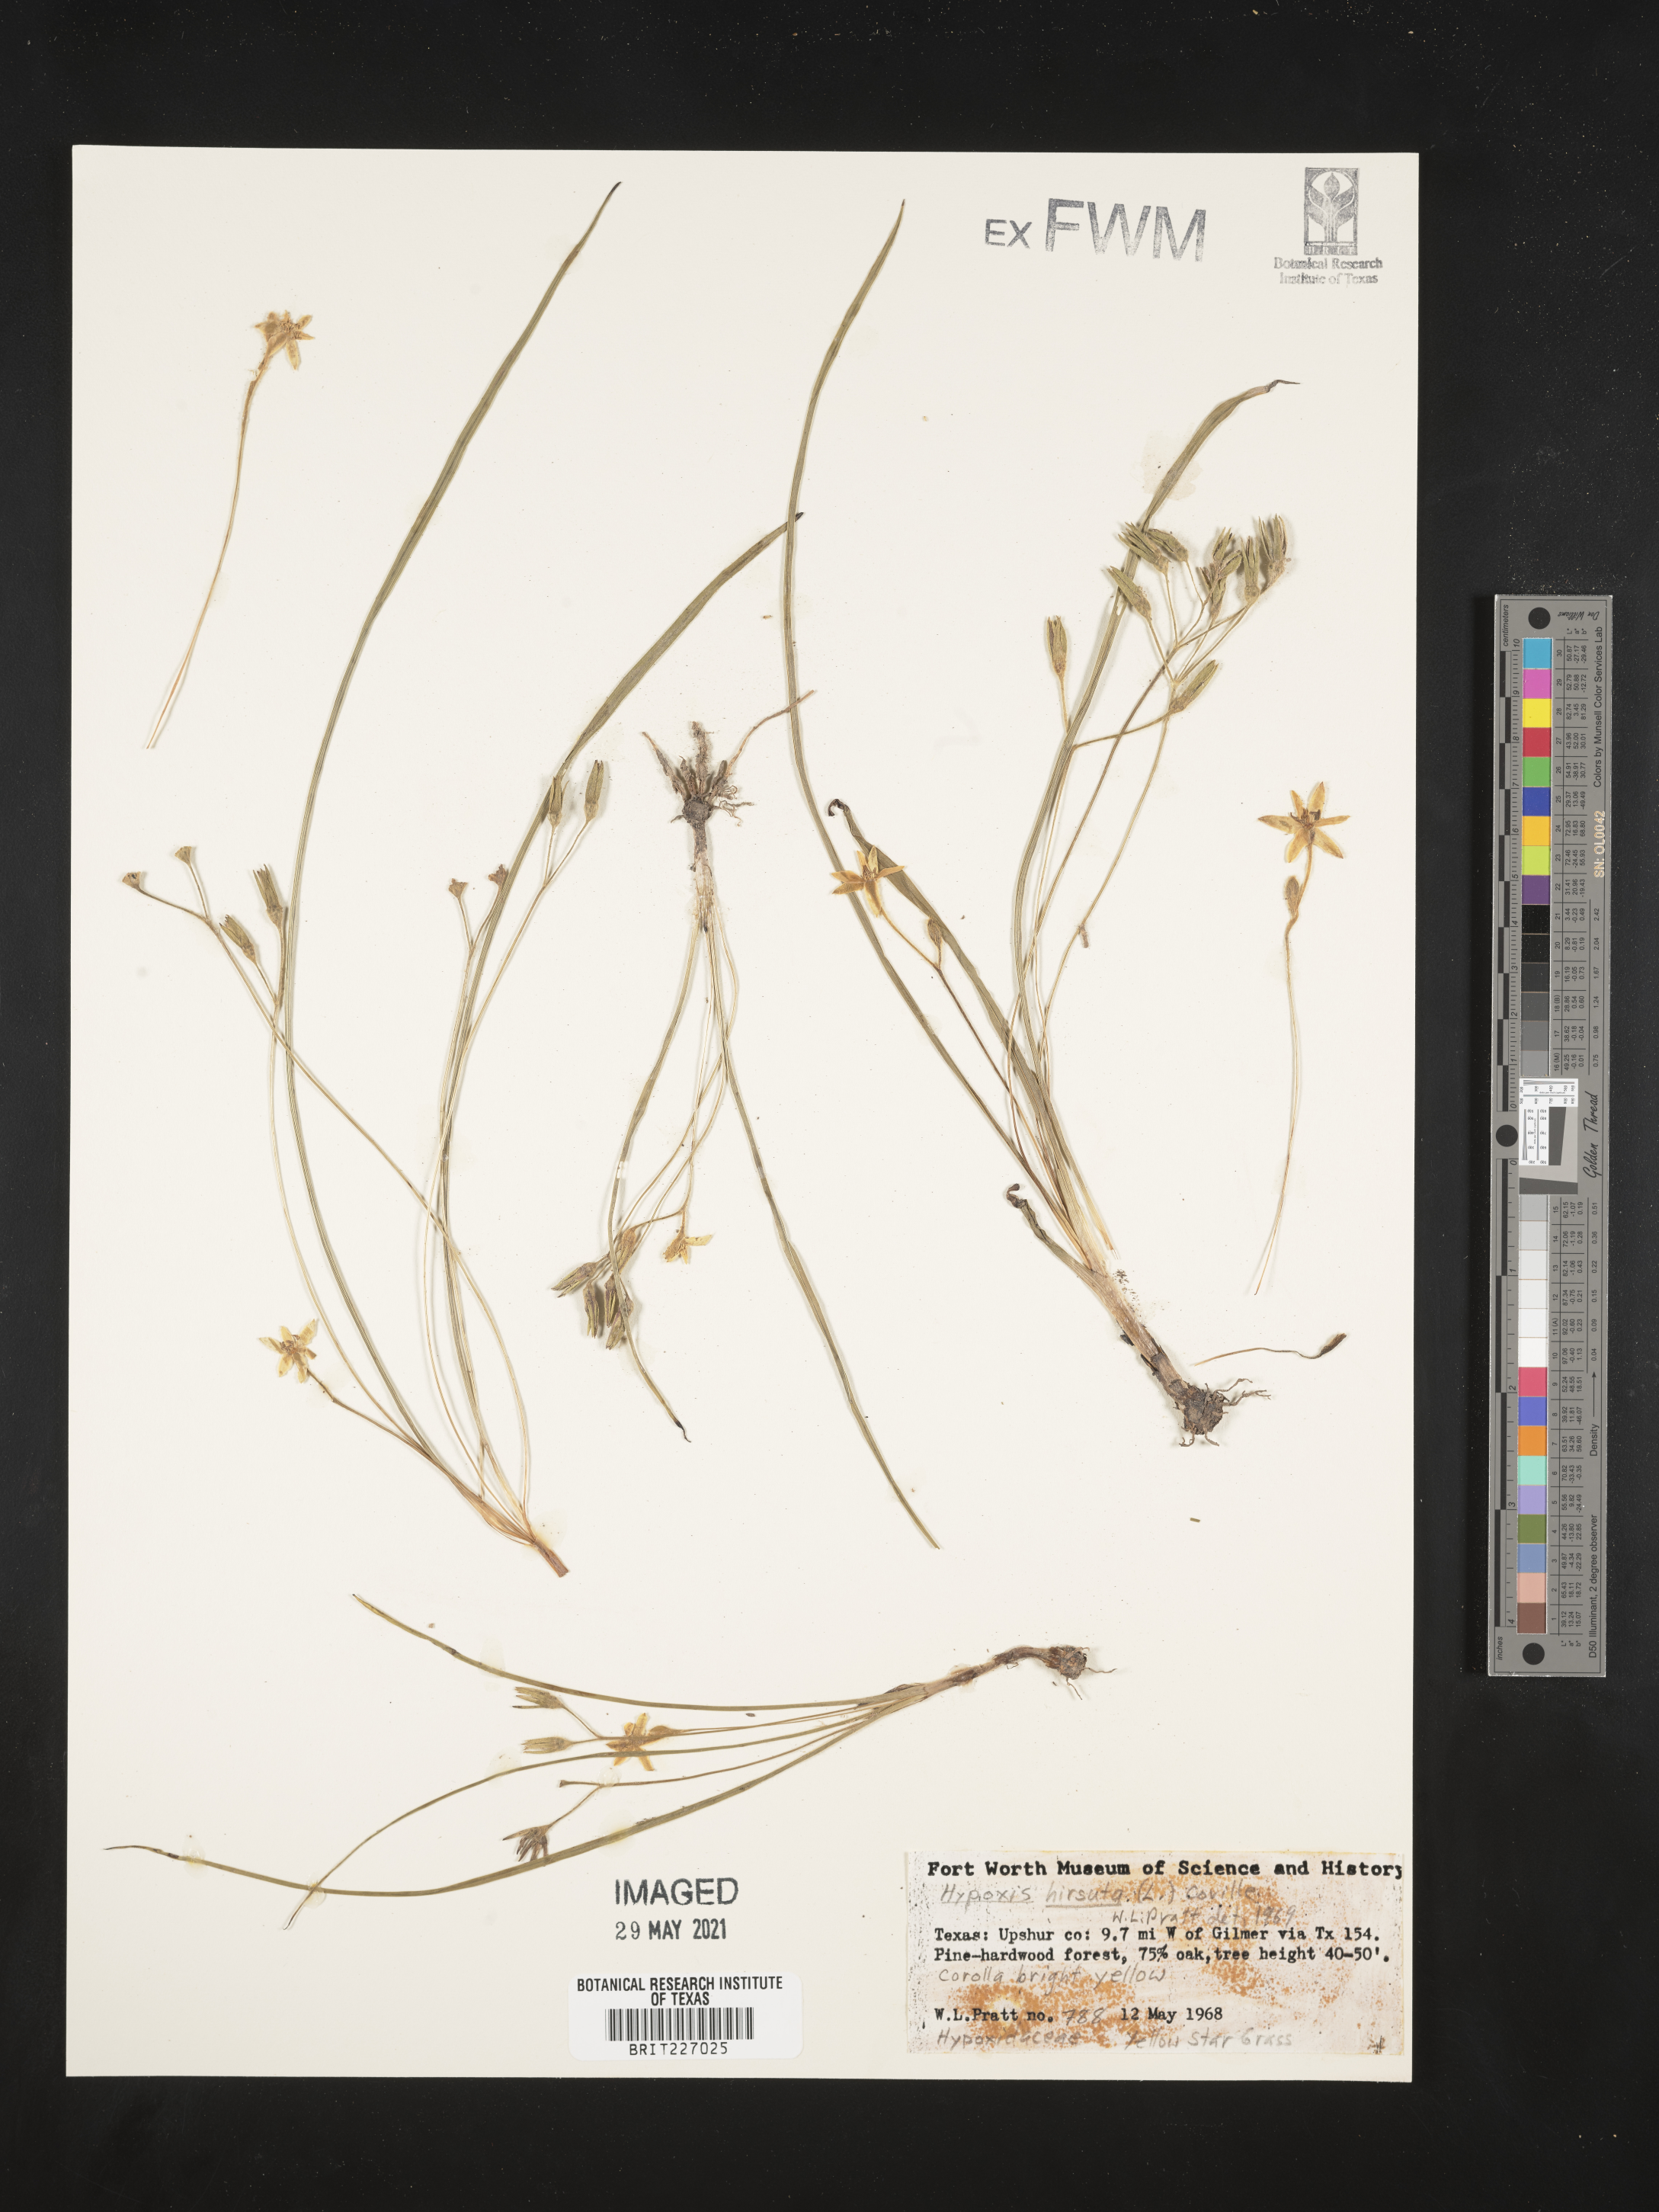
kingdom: Plantae
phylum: Tracheophyta
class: Liliopsida
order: Asparagales
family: Hypoxidaceae
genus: Hypoxis
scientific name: Hypoxis hirsuta
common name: Common goldstar
